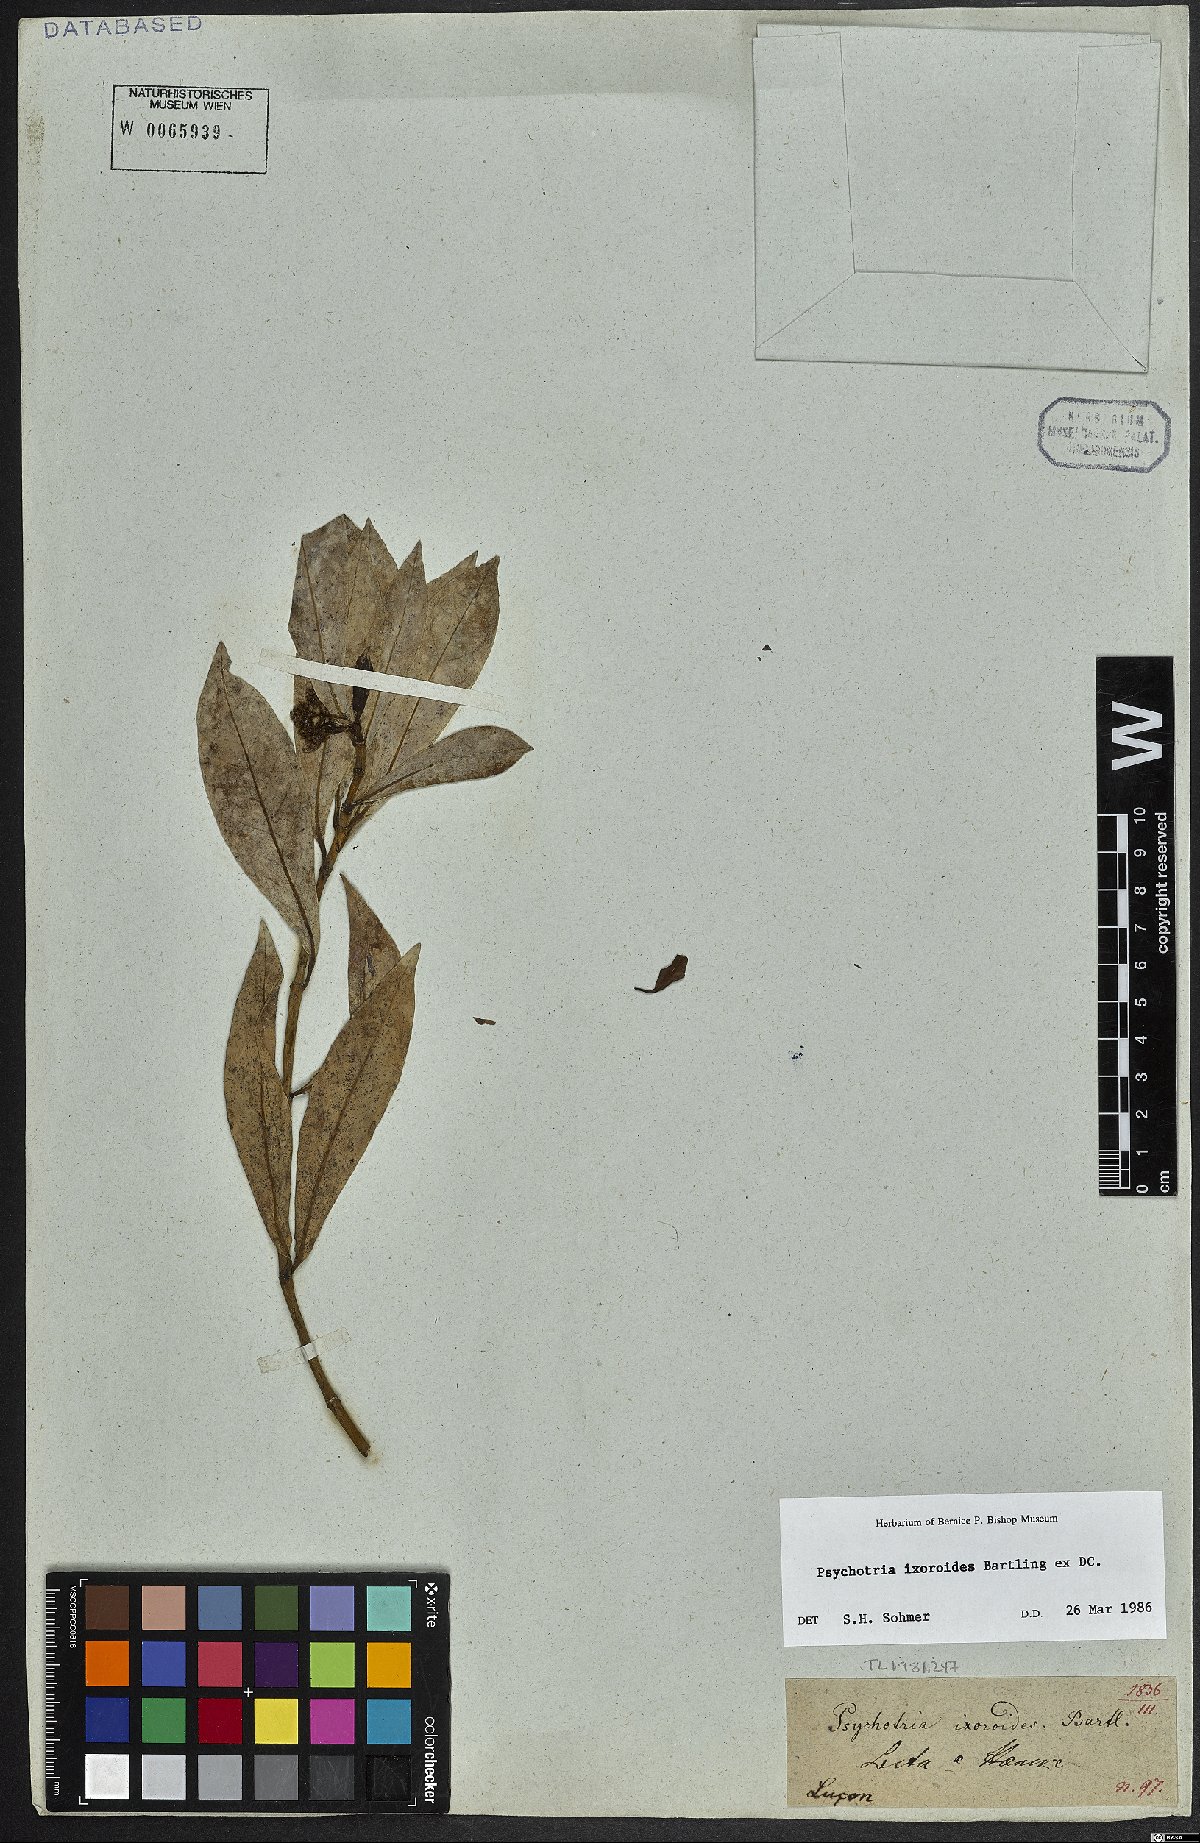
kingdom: Plantae
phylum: Tracheophyta
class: Magnoliopsida
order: Gentianales
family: Rubiaceae
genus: Psychotria
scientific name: Psychotria ixoroides
